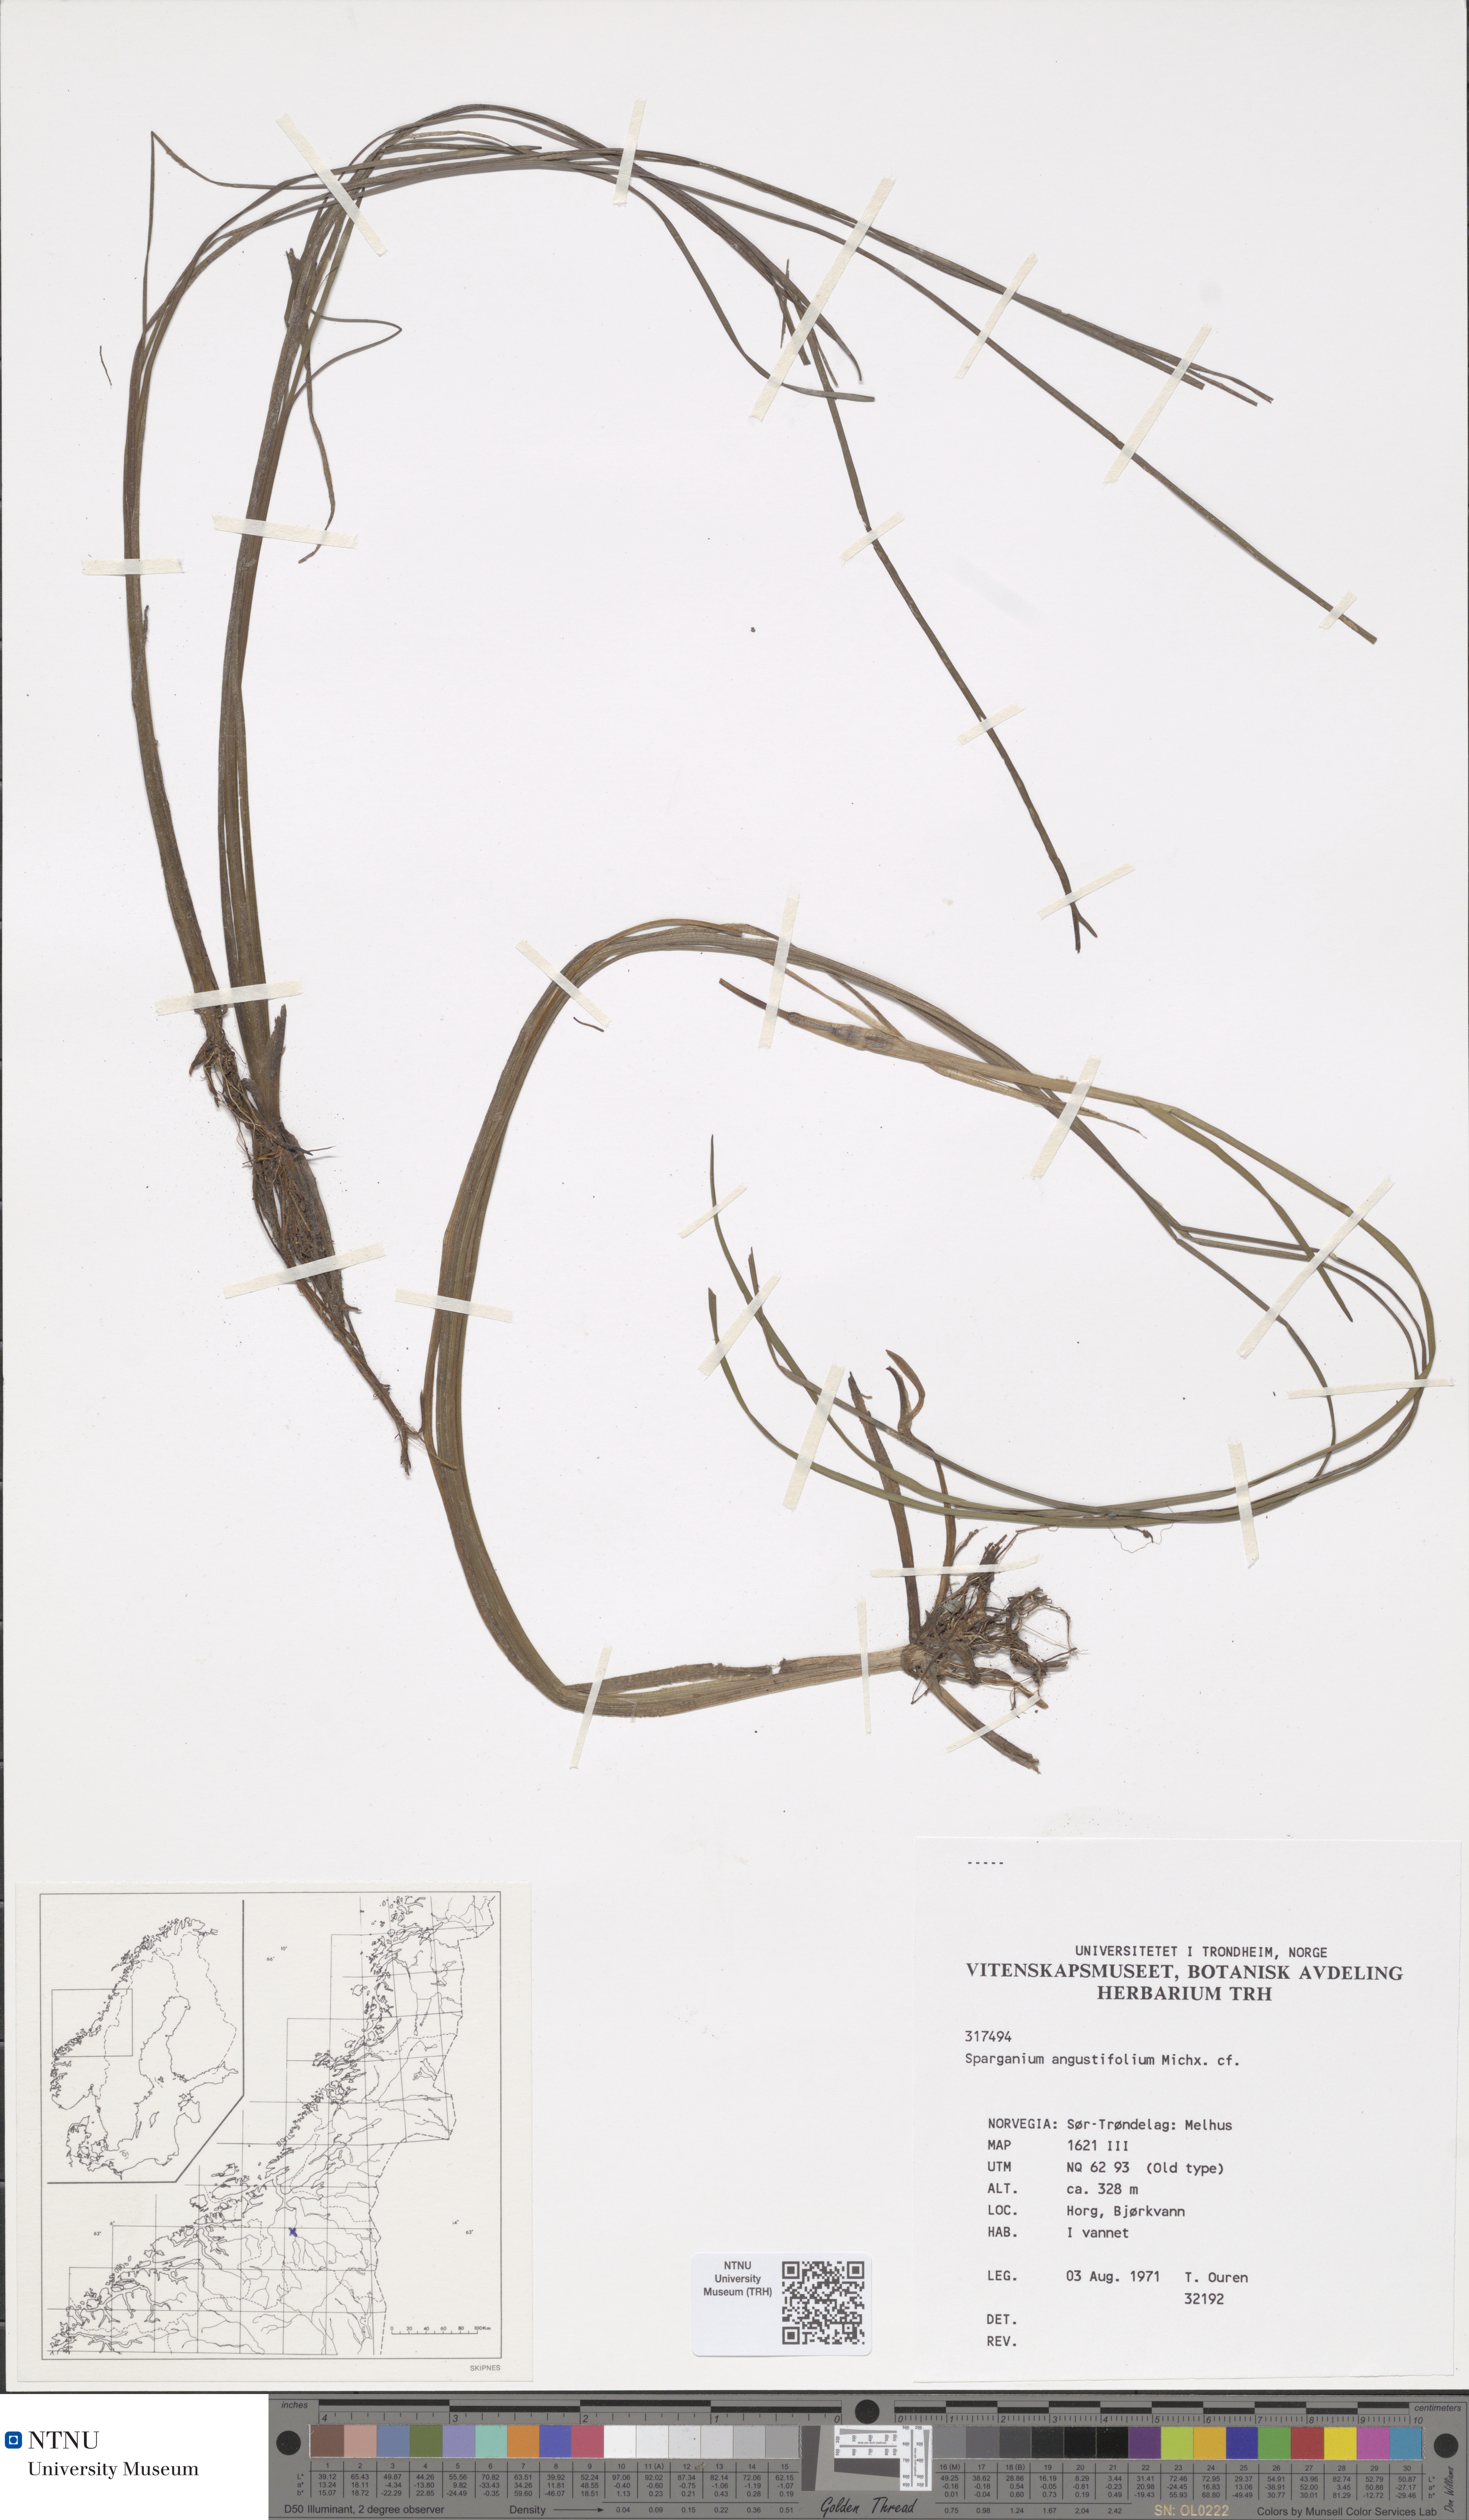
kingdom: Plantae
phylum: Tracheophyta
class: Liliopsida
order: Poales
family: Typhaceae
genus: Sparganium
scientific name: Sparganium angustifolium
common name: Floating bur-reed
